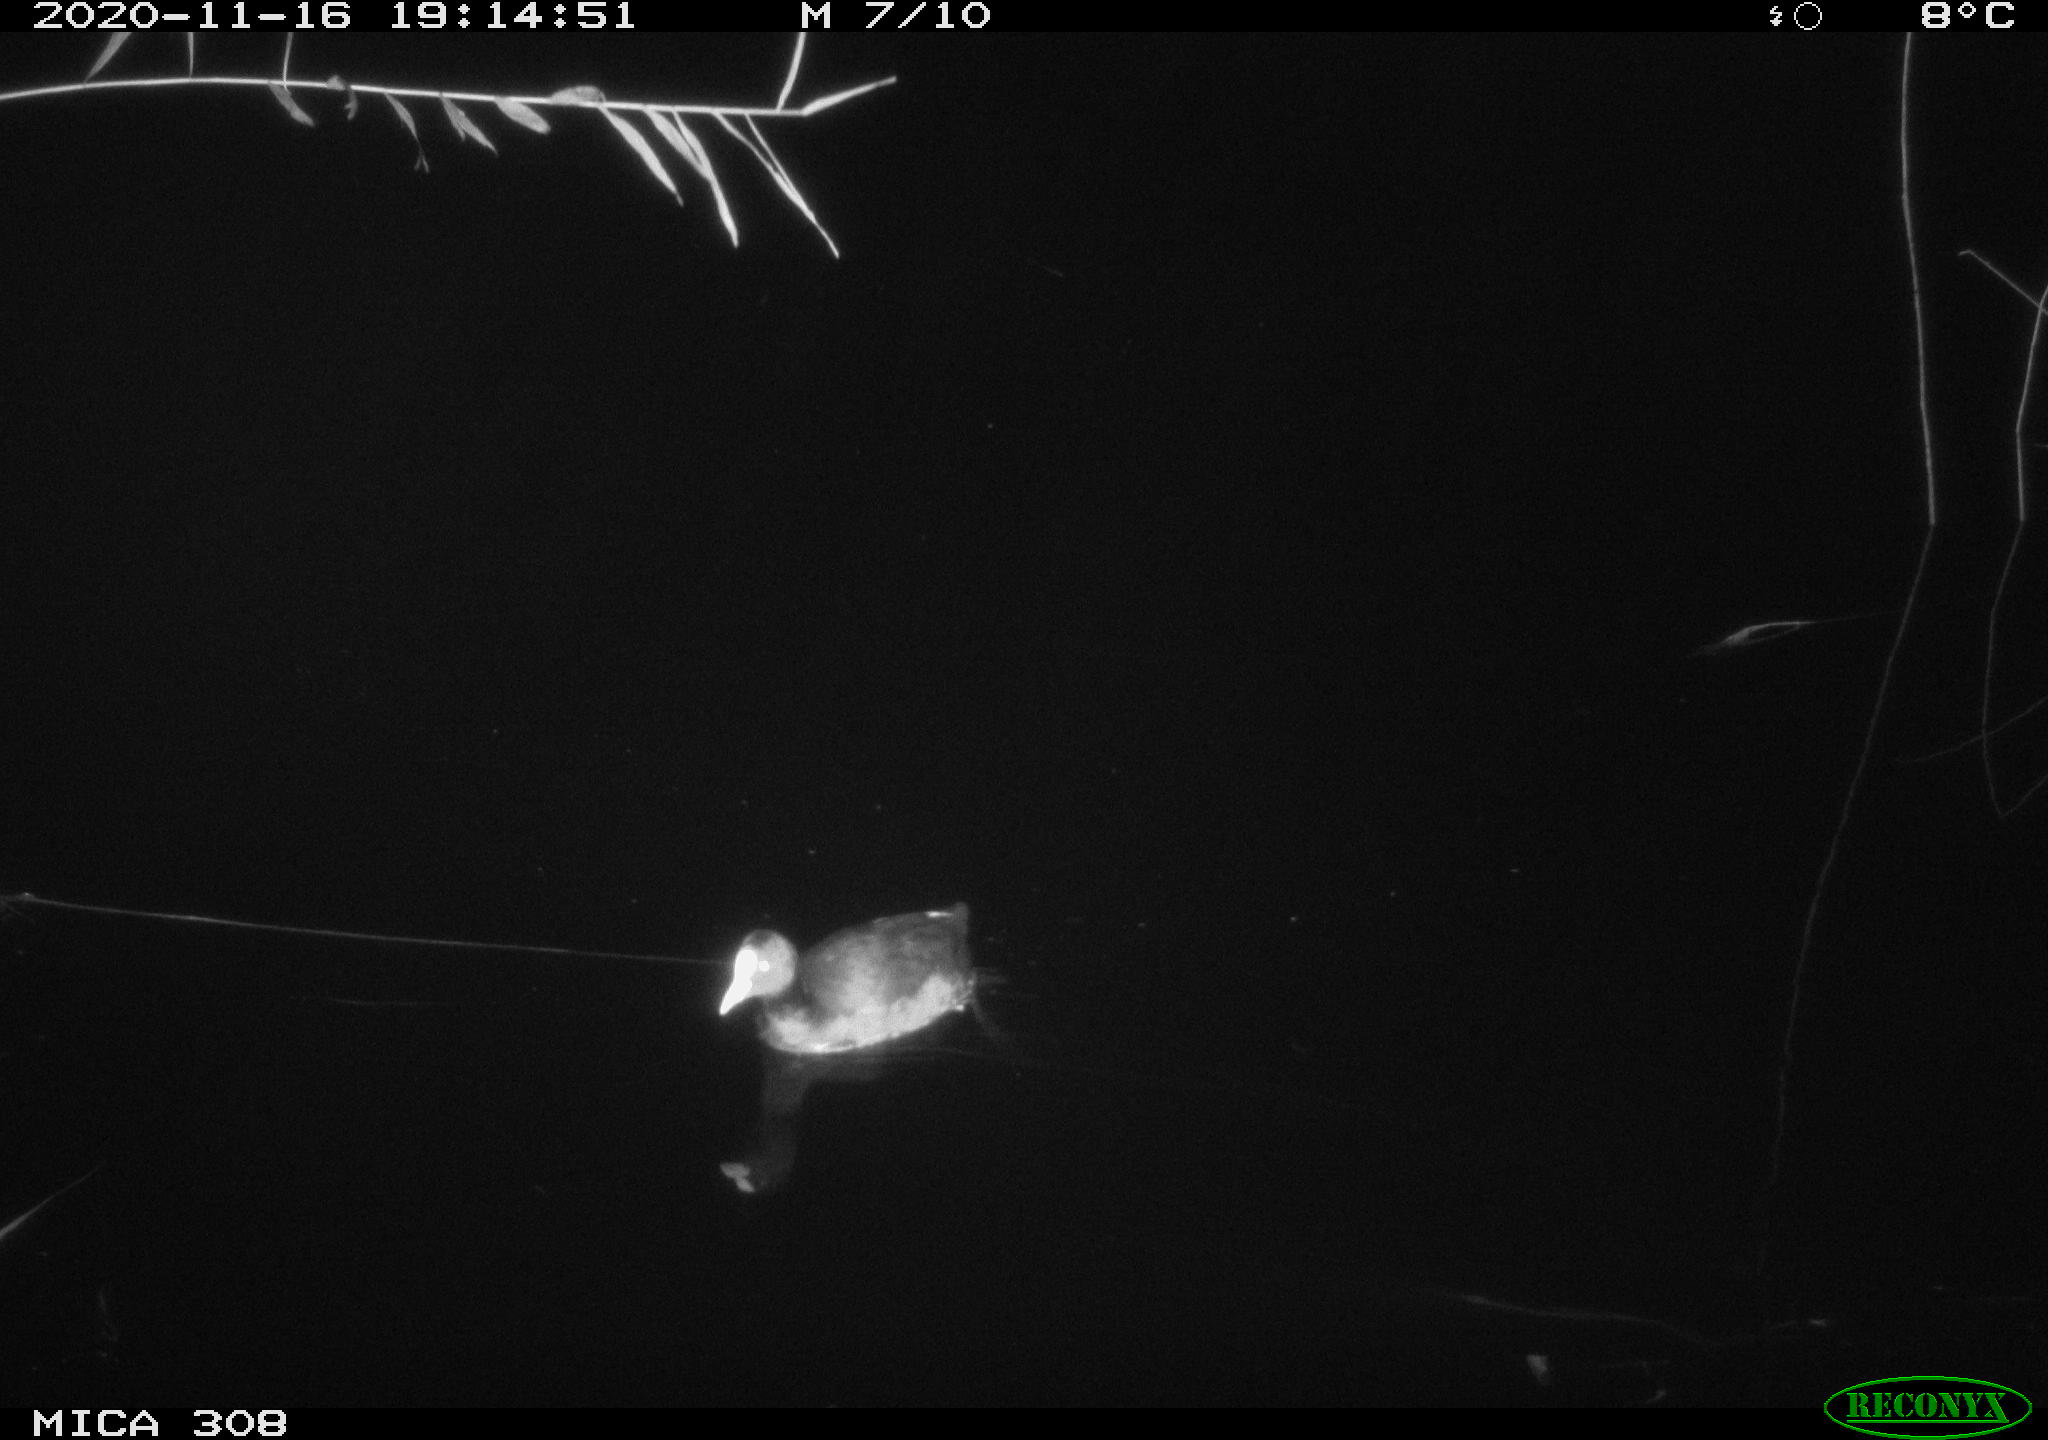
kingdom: Animalia
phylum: Chordata
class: Aves
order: Gruiformes
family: Rallidae
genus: Fulica
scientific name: Fulica atra
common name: Eurasian coot
